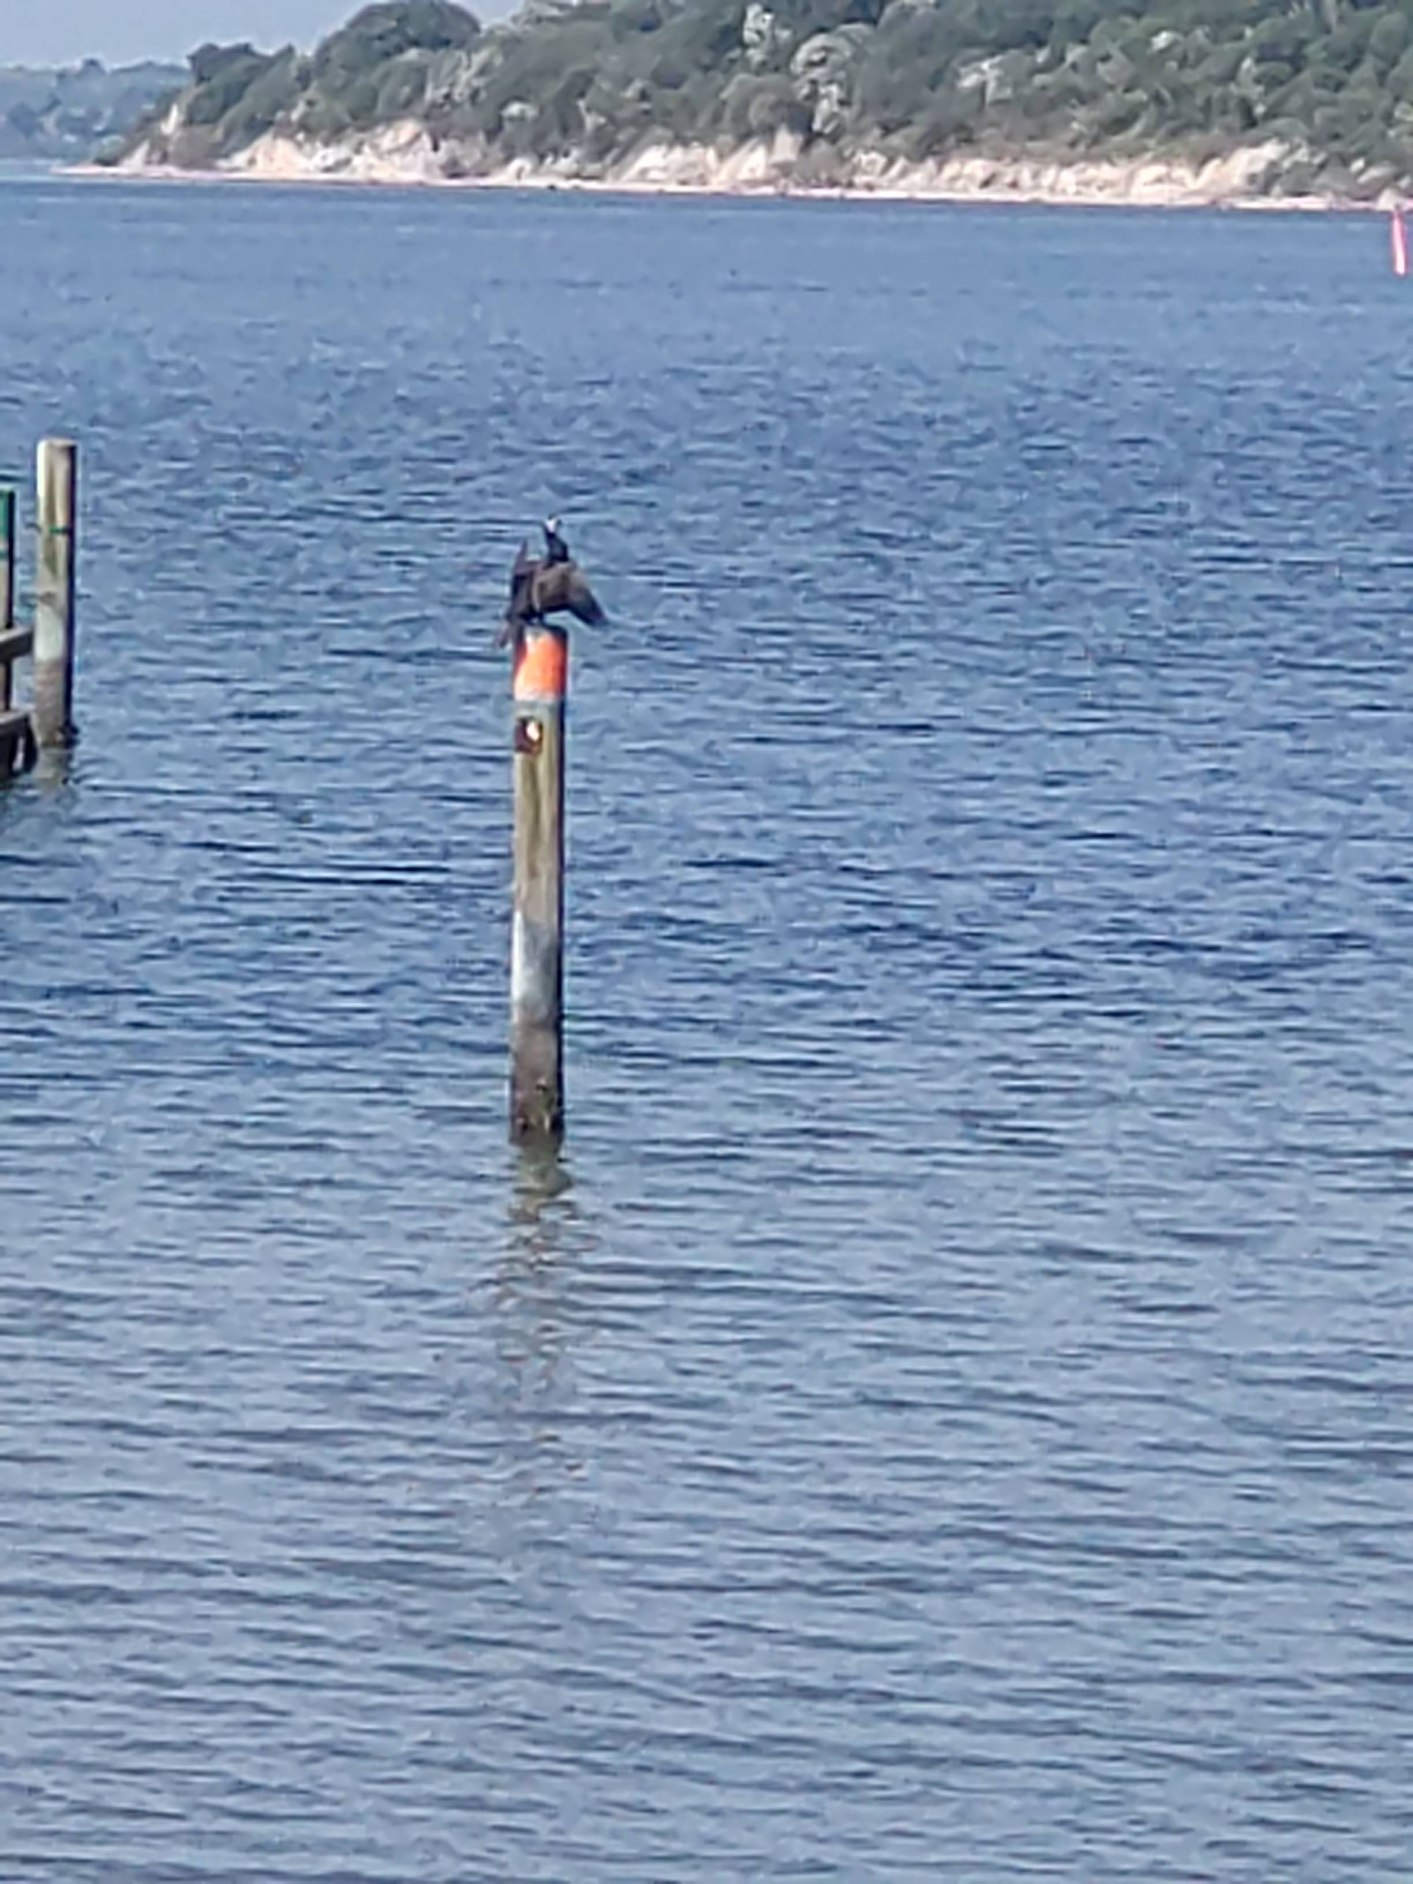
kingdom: Animalia
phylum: Chordata
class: Aves
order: Suliformes
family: Phalacrocoracidae
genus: Phalacrocorax
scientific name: Phalacrocorax carbo
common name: Skarv
